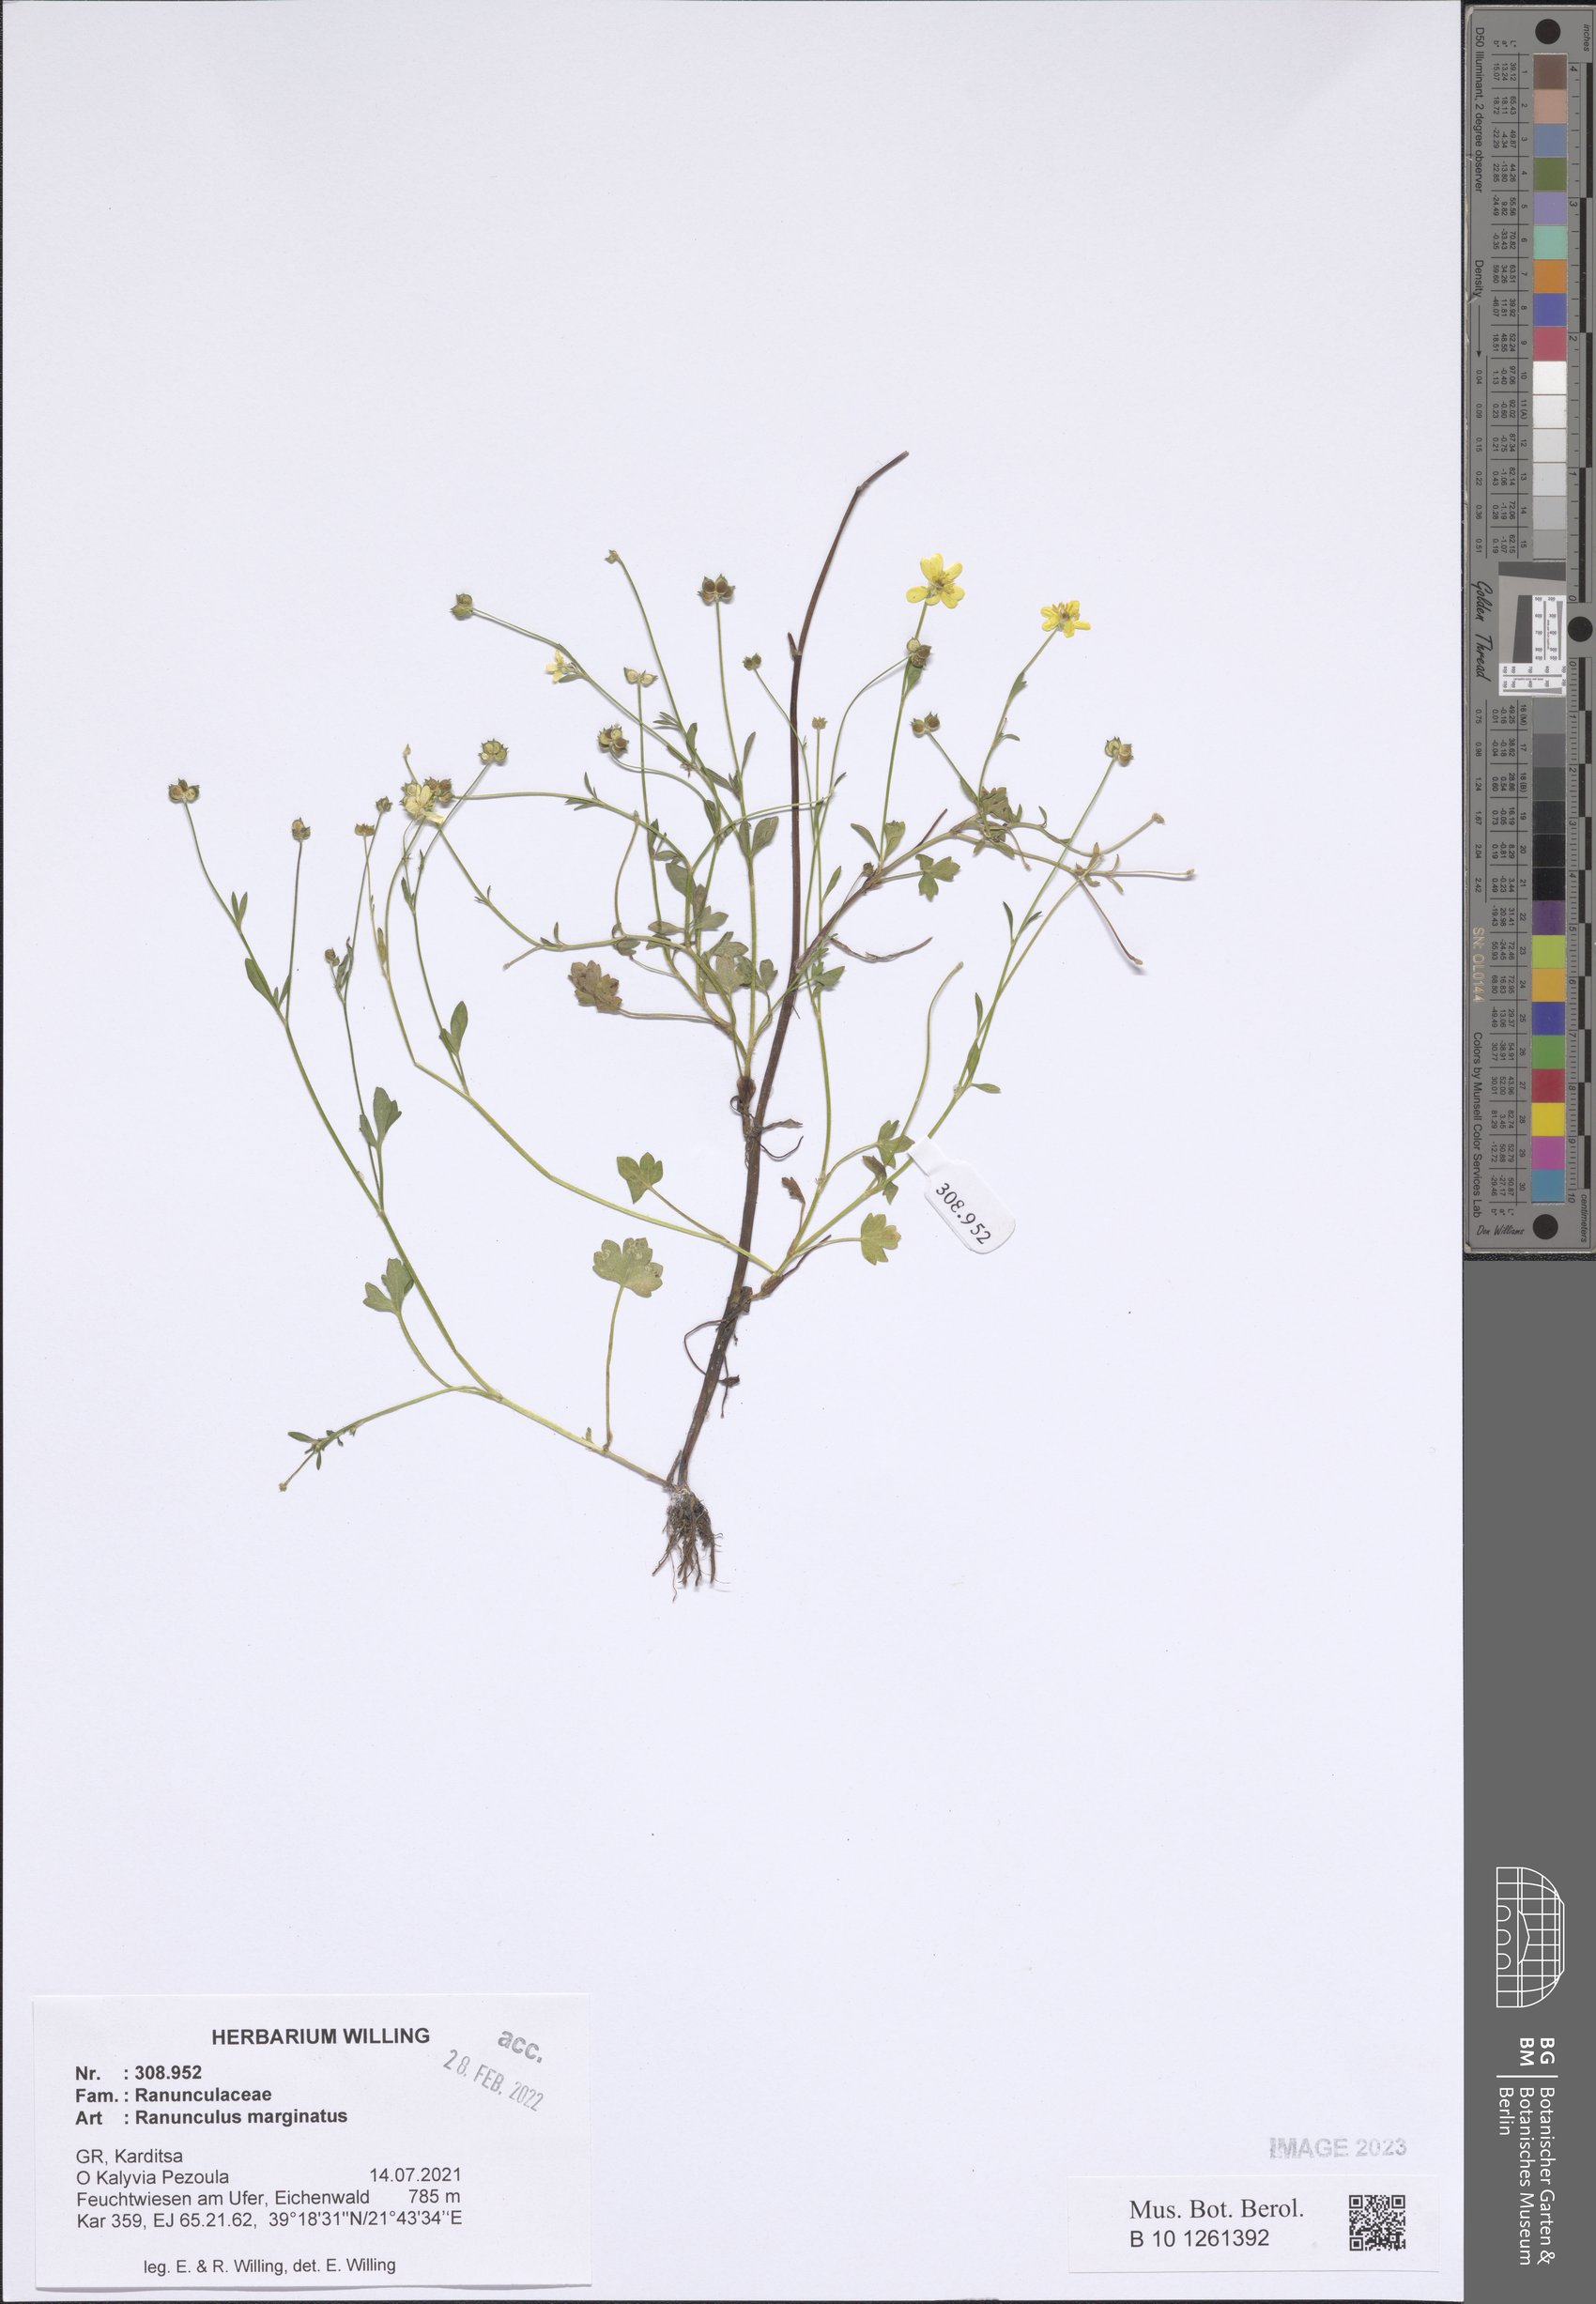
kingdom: Plantae
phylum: Tracheophyta
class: Magnoliopsida
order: Ranunculales
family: Ranunculaceae
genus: Ranunculus
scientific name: Ranunculus marginatus
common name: St. martin's buttercup
